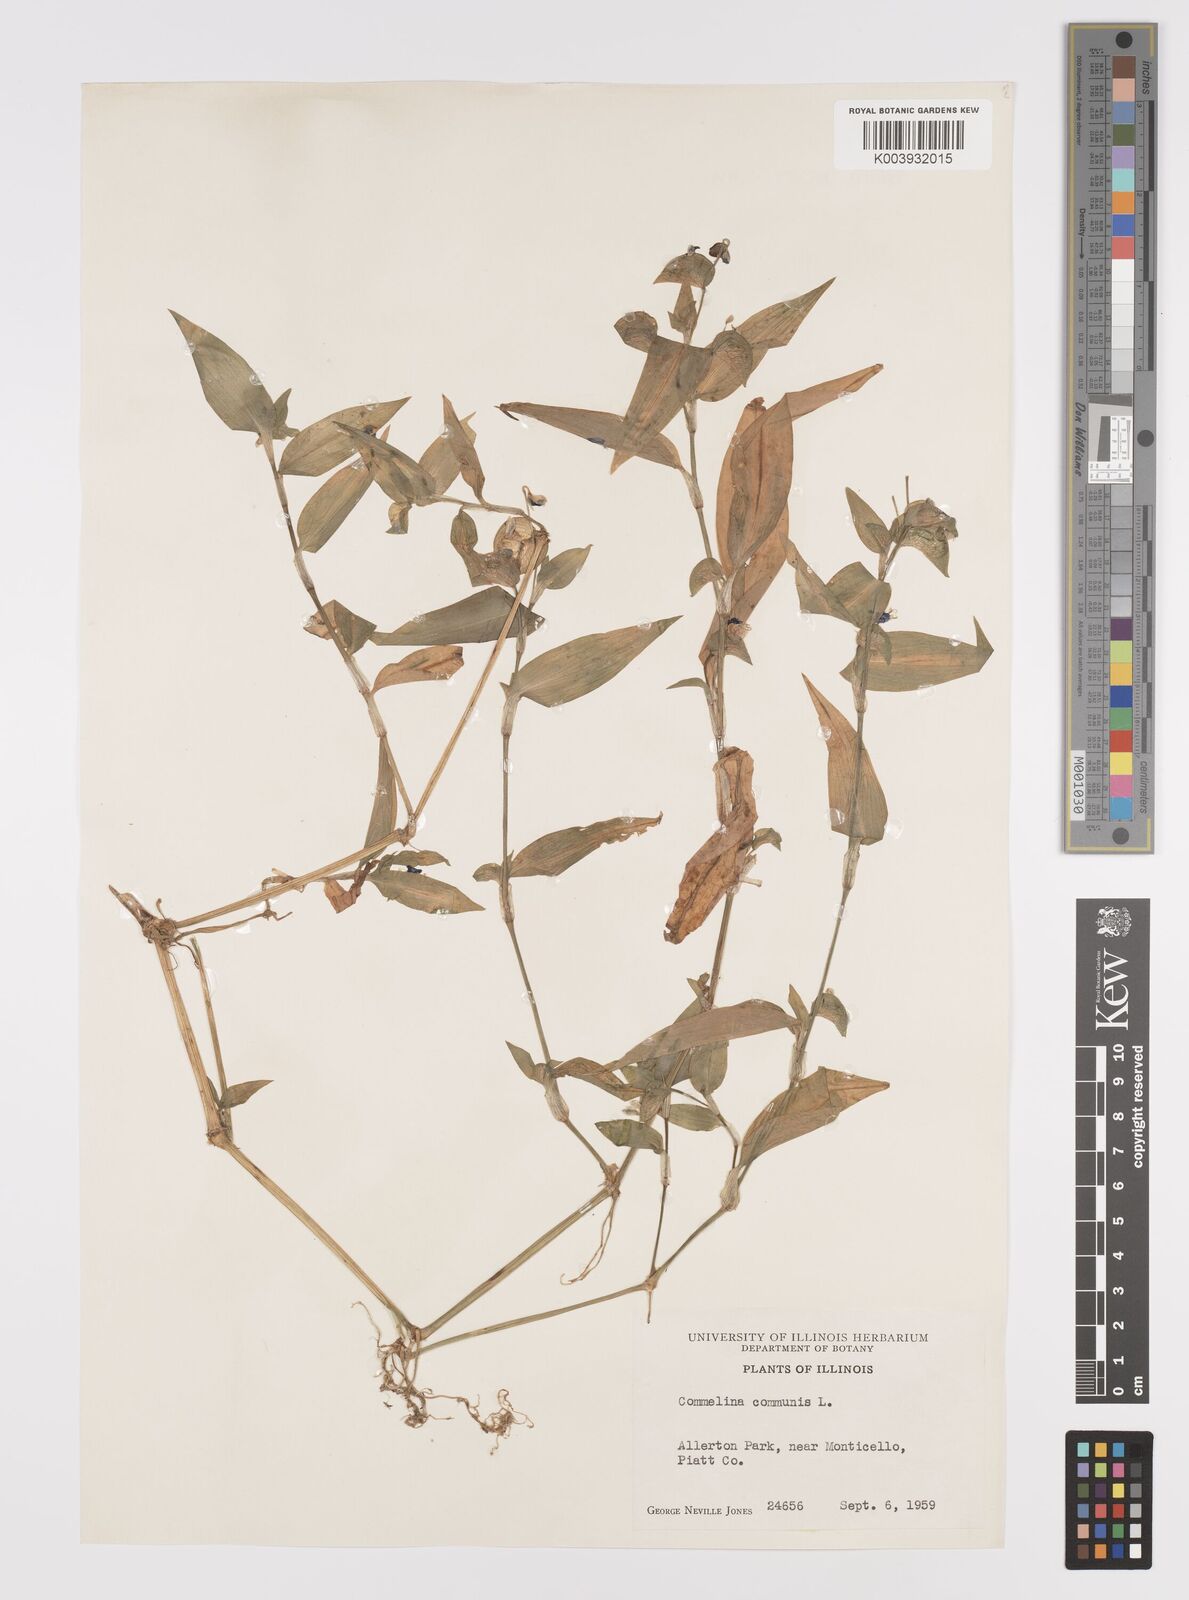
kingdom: Plantae
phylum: Tracheophyta
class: Liliopsida
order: Commelinales
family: Commelinaceae
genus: Commelina
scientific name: Commelina communis
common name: Asiatic dayflower
